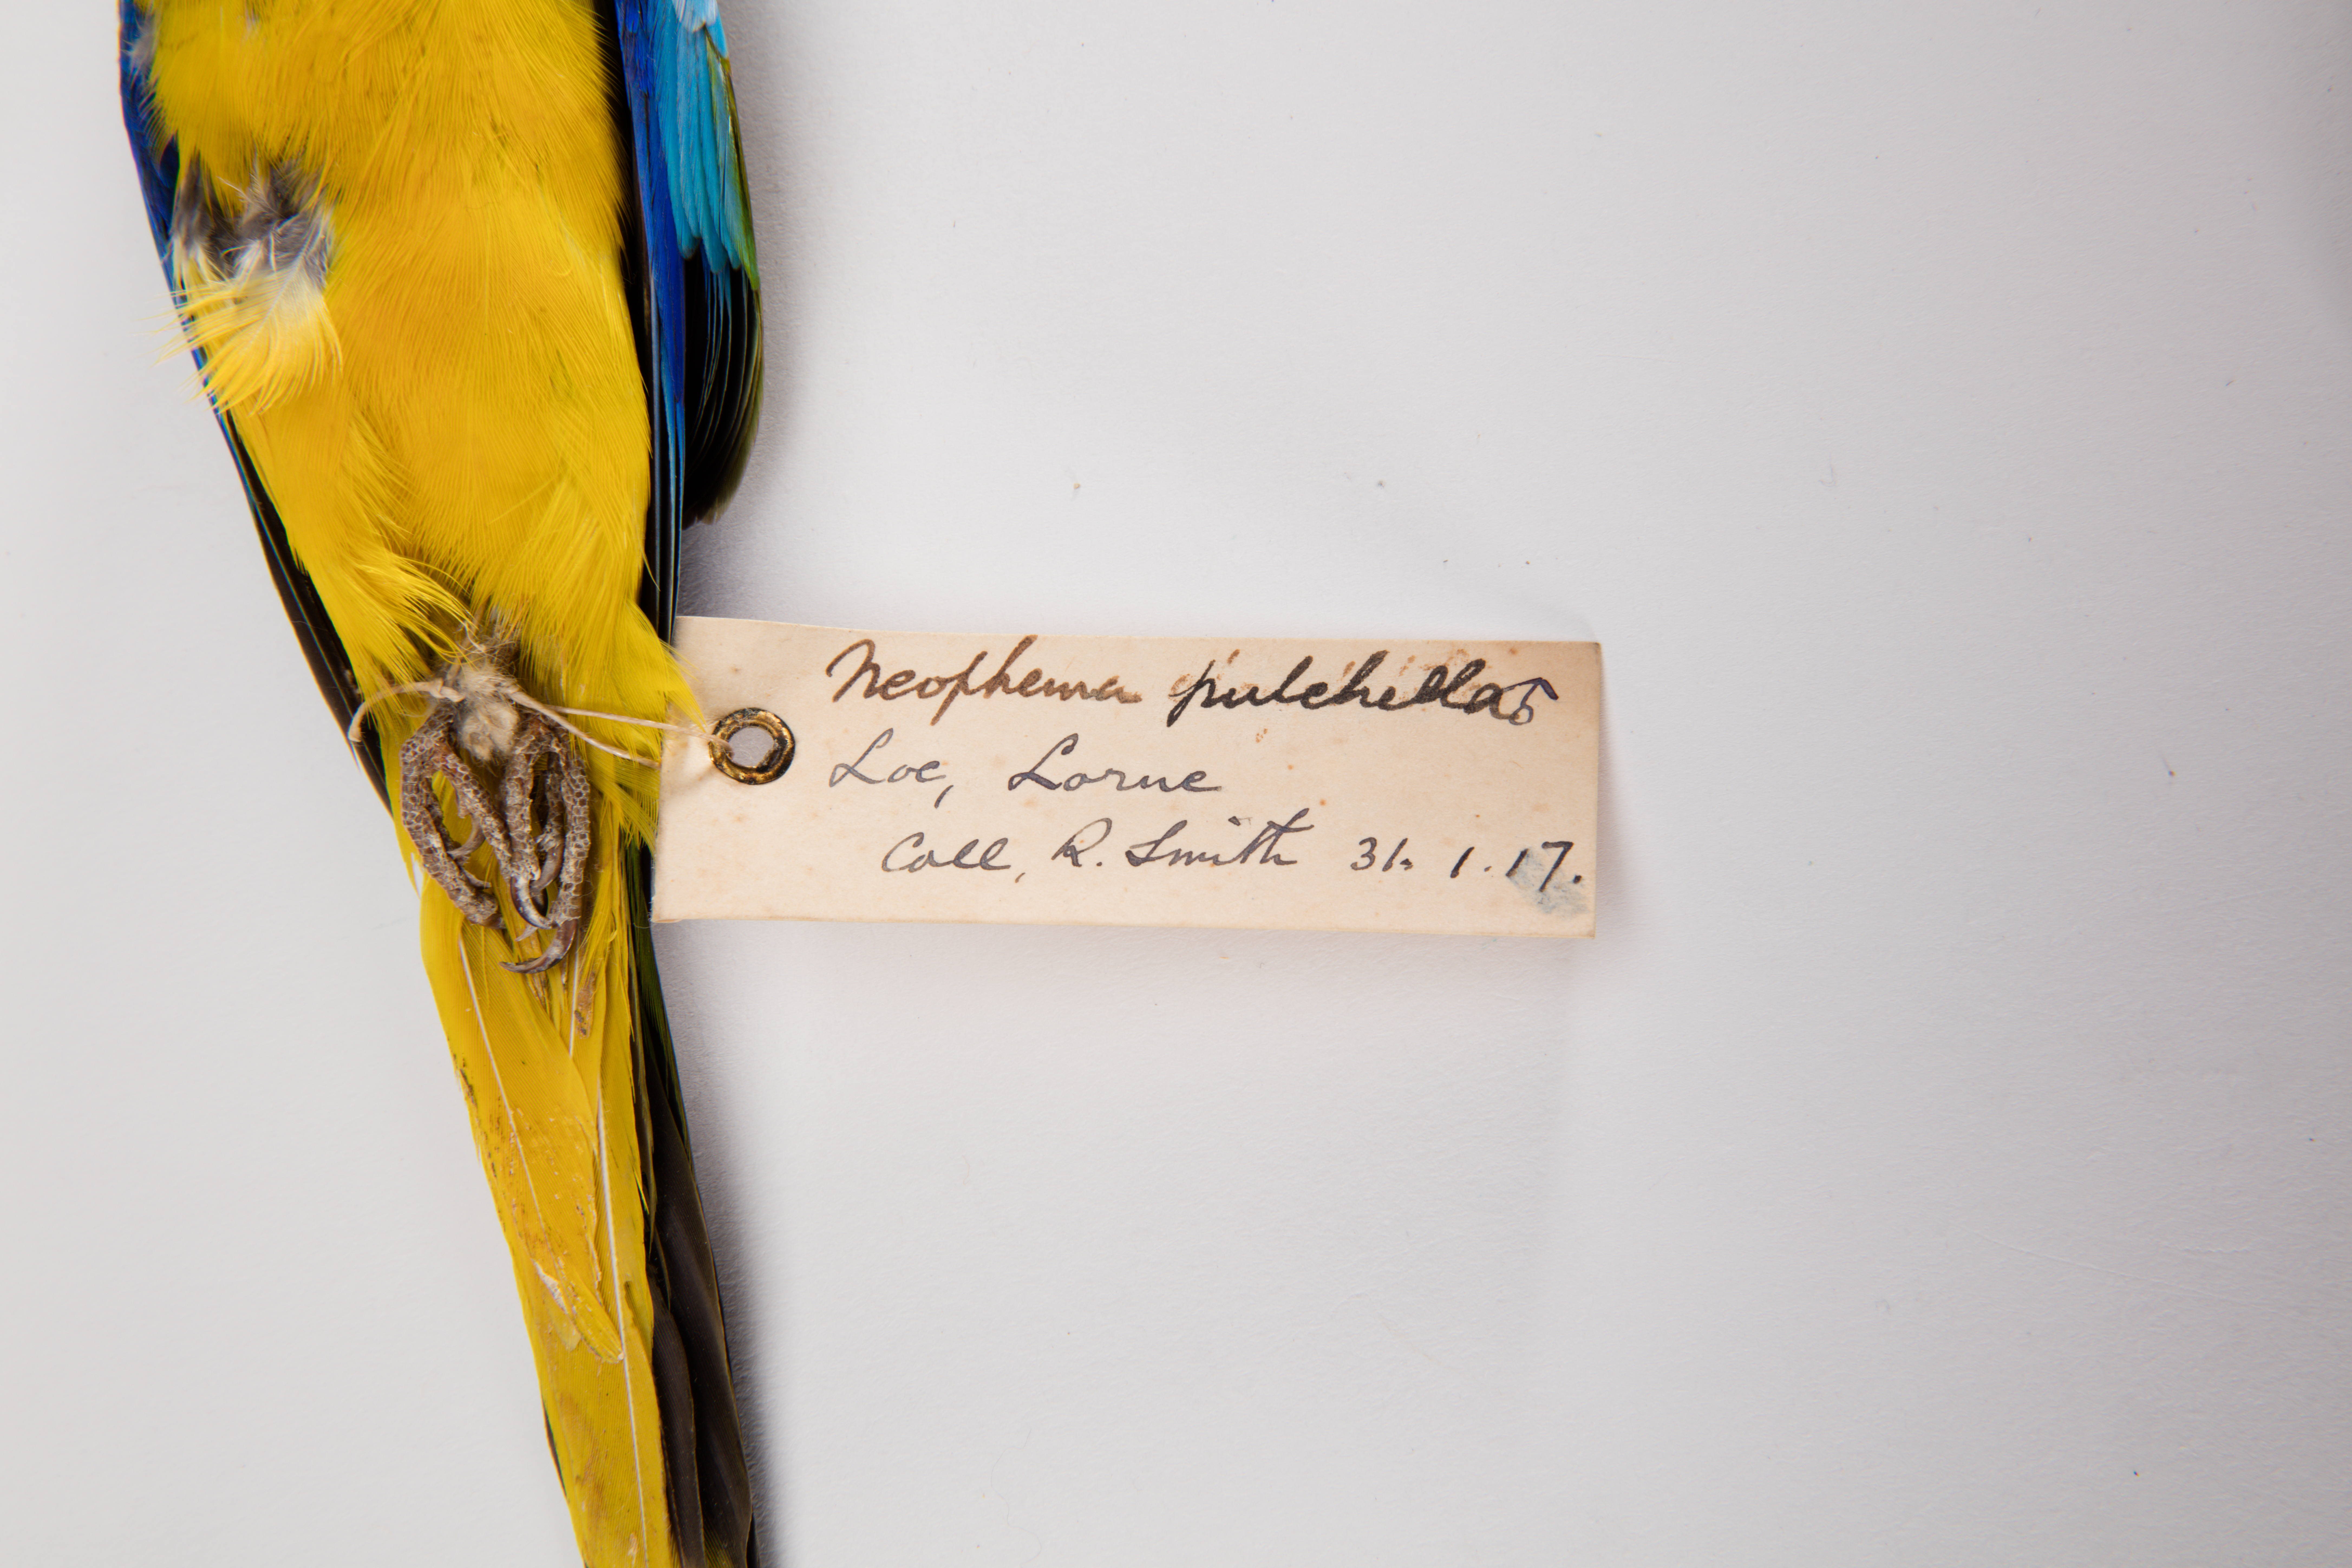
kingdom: Animalia
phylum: Chordata
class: Aves
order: Psittaciformes
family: Psittacidae
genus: Neophema
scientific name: Neophema pulchella
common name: Turquoise parrot
